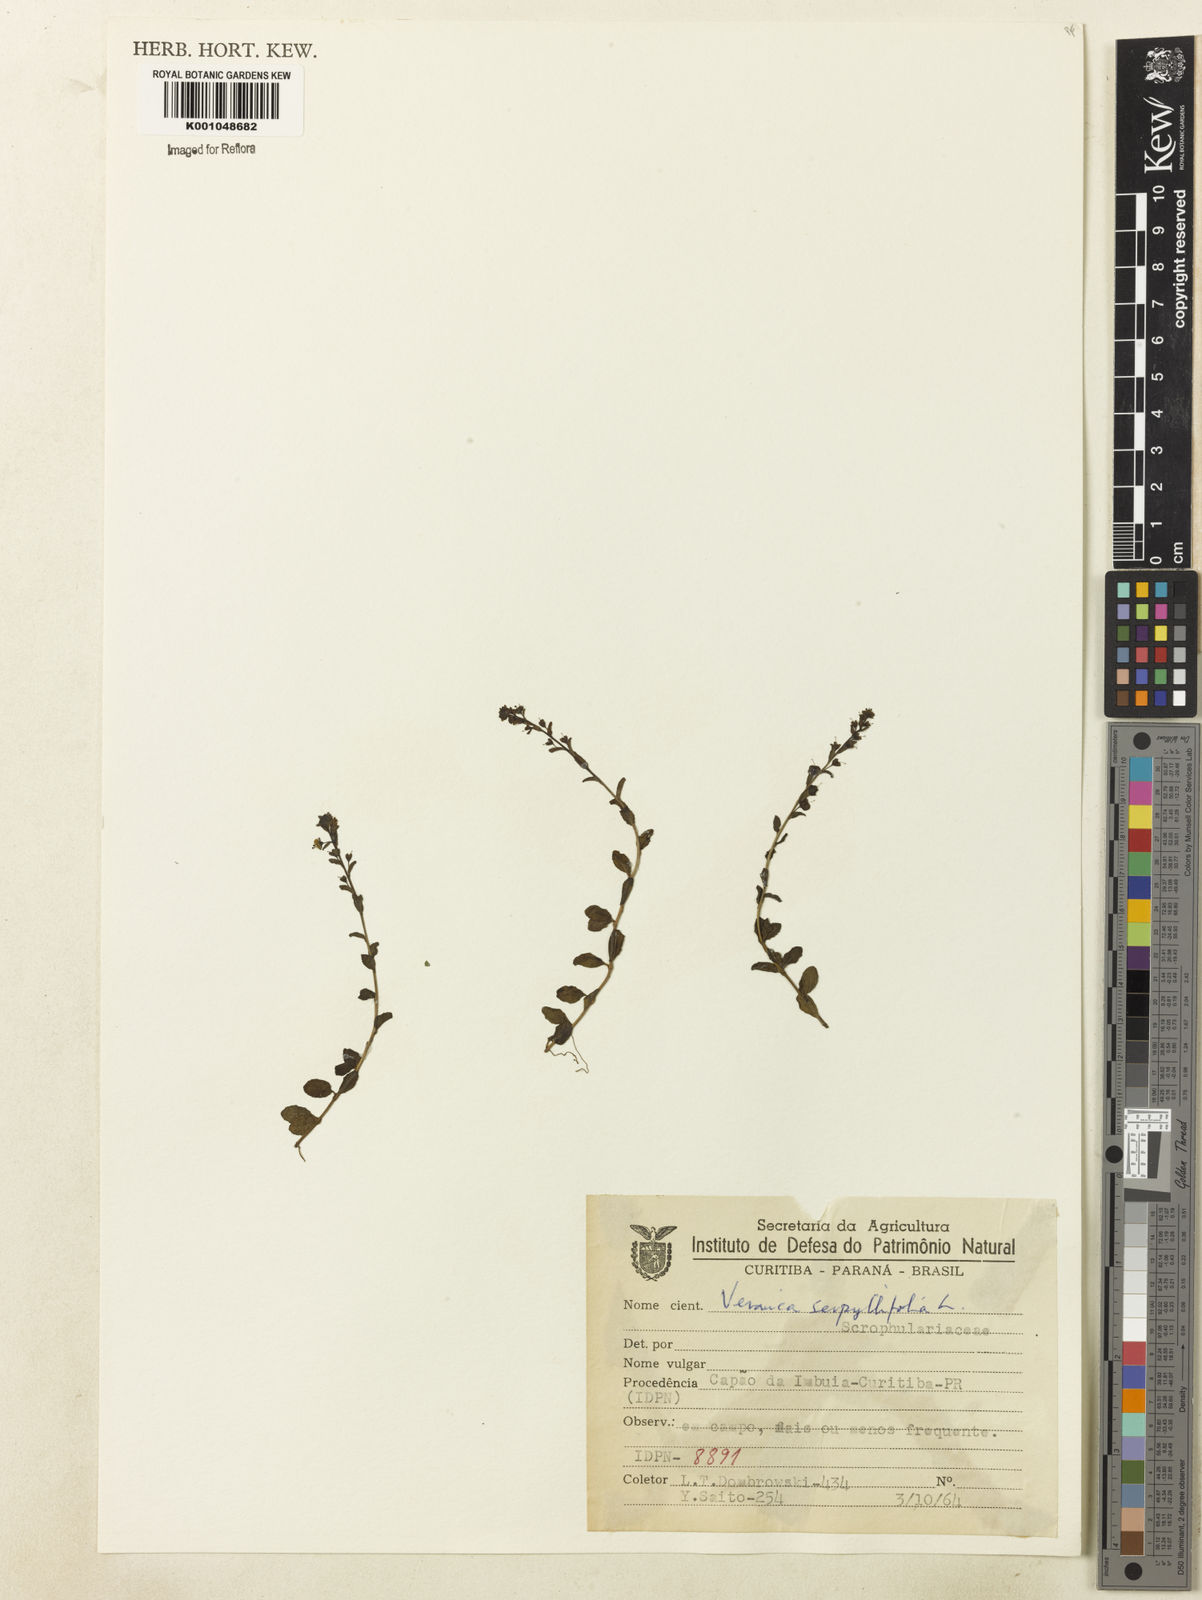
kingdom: Plantae
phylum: Tracheophyta
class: Magnoliopsida
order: Lamiales
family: Plantaginaceae
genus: Veronica
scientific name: Veronica serpyllifolia
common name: Thyme-leaved speedwell
